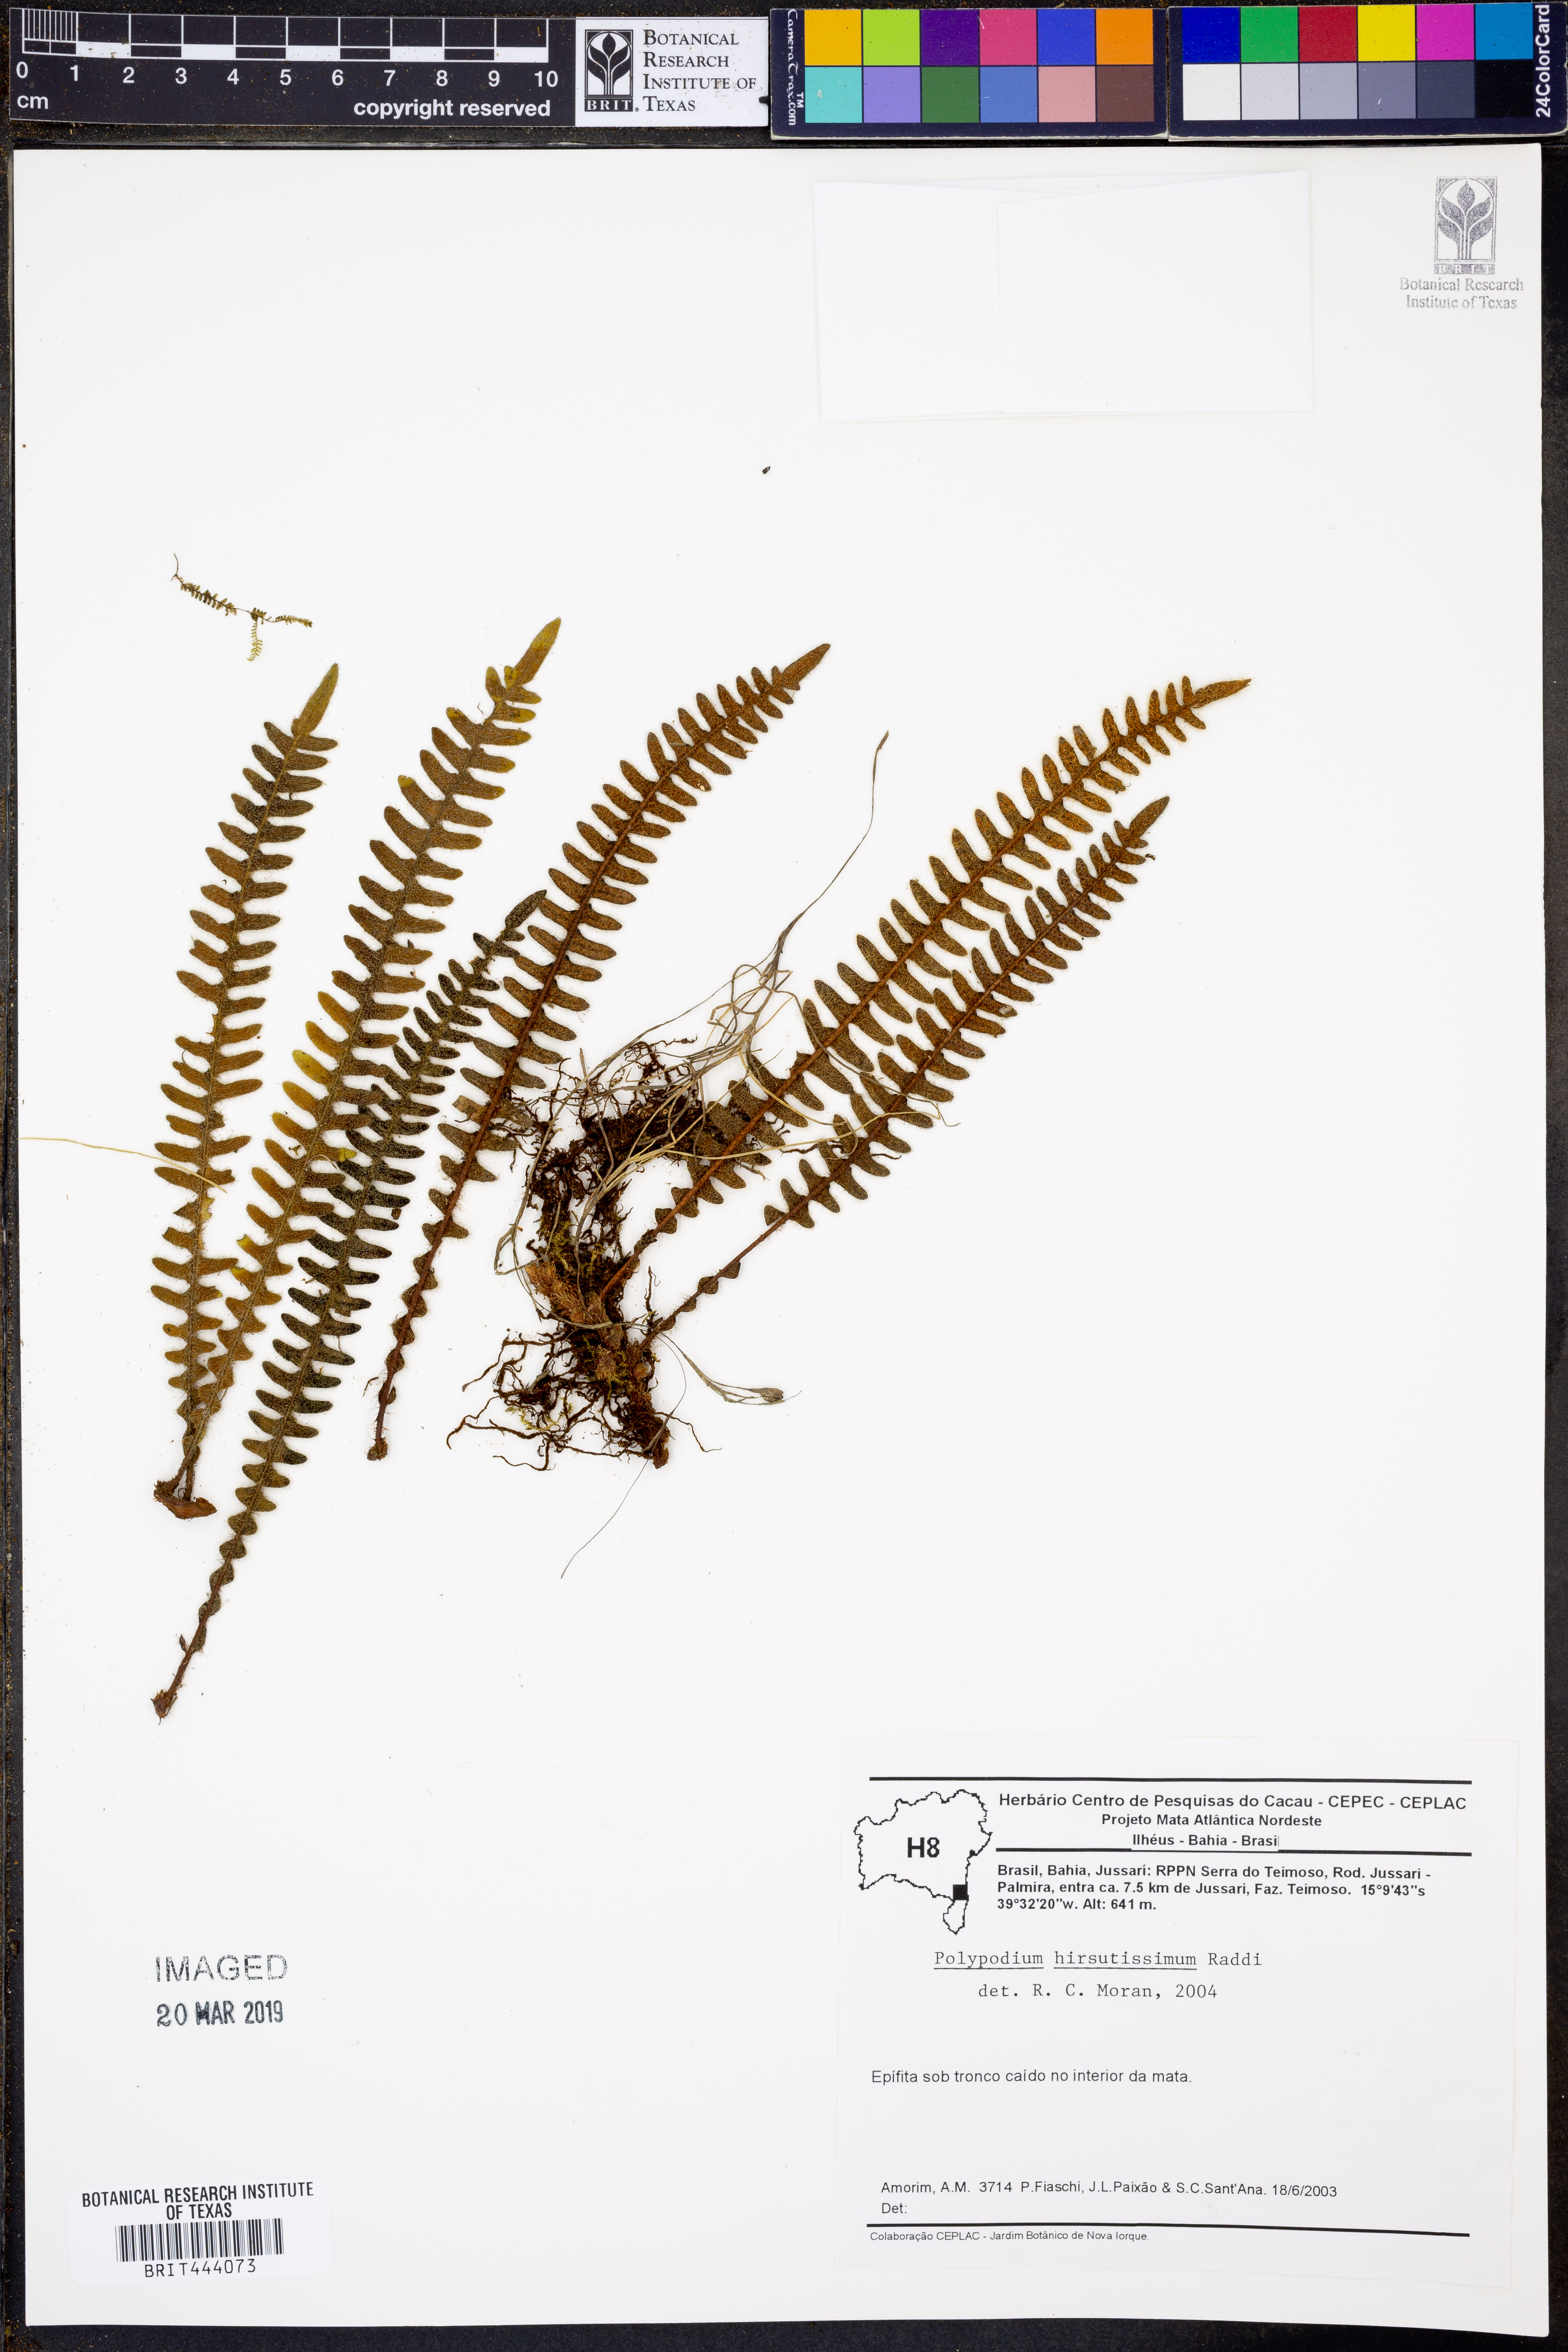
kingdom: Plantae
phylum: Tracheophyta
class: Polypodiopsida
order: Polypodiales
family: Polypodiaceae
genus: Pleopeltis
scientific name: Pleopeltis hirsutissima
